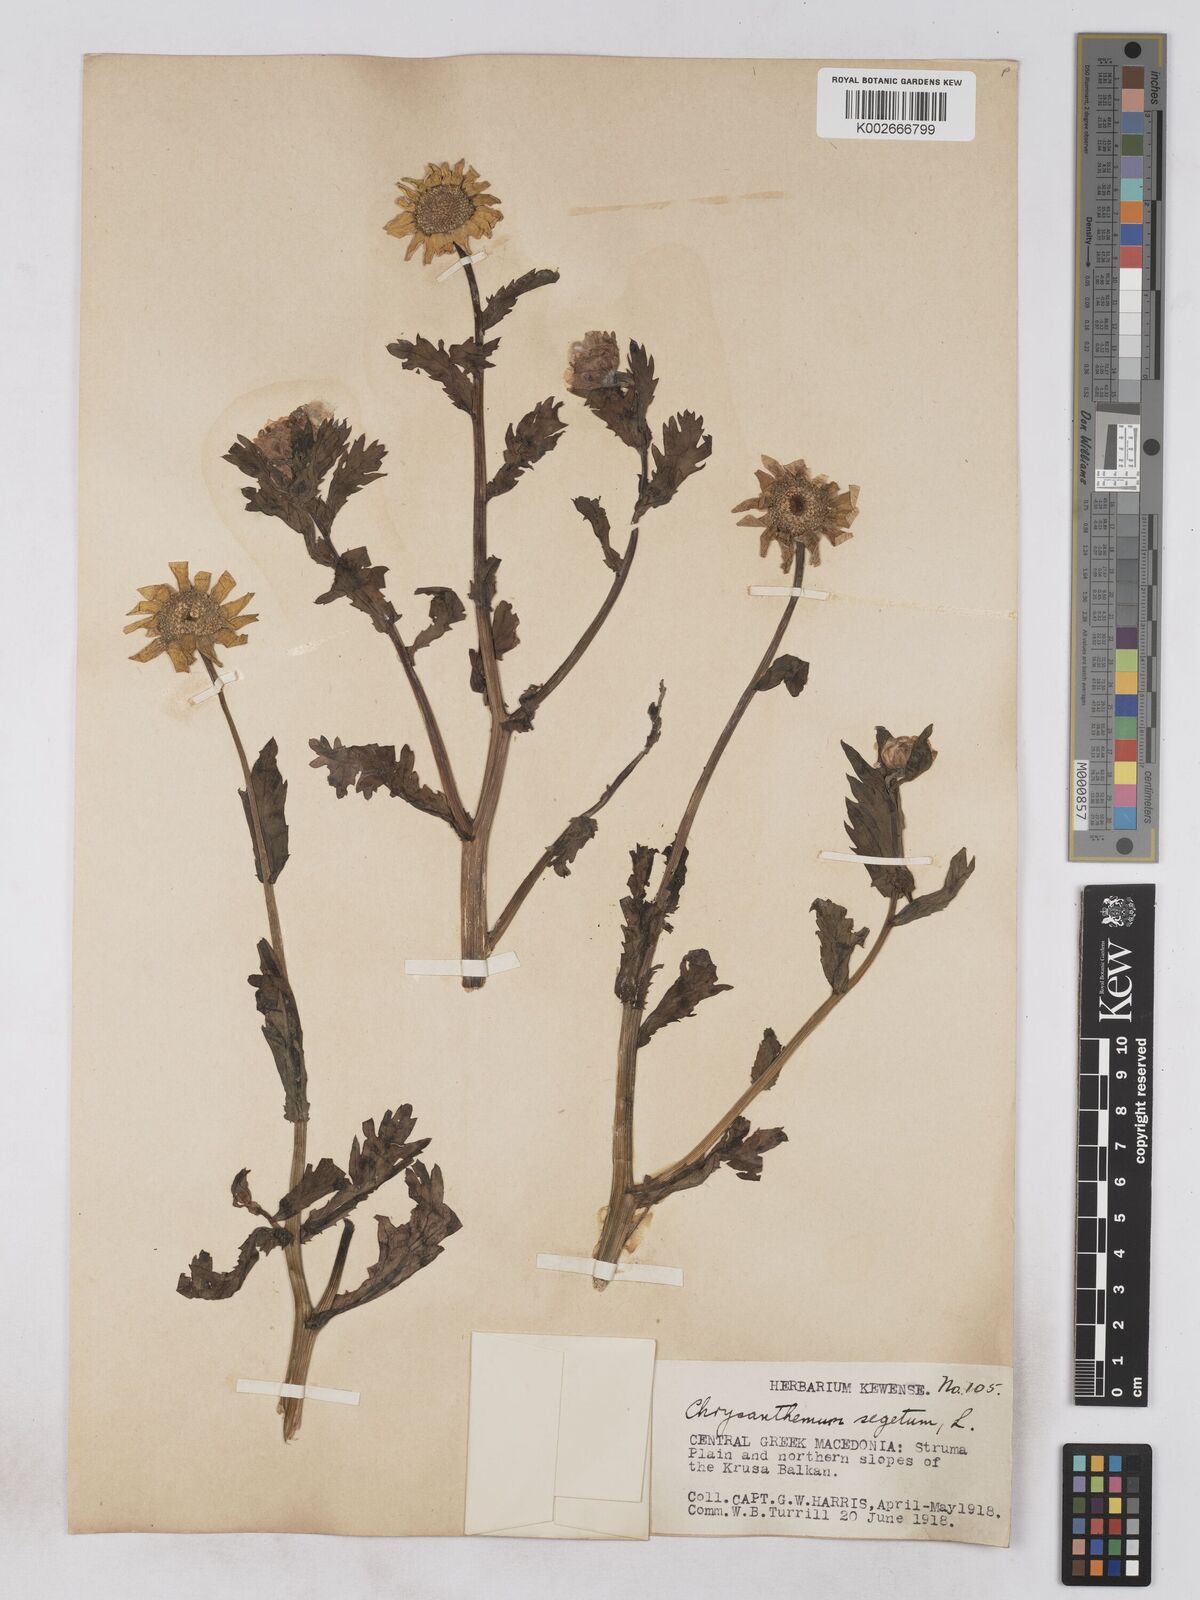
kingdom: Plantae
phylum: Tracheophyta
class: Magnoliopsida
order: Asterales
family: Asteraceae
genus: Glebionis
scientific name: Glebionis segetum
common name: Corndaisy
